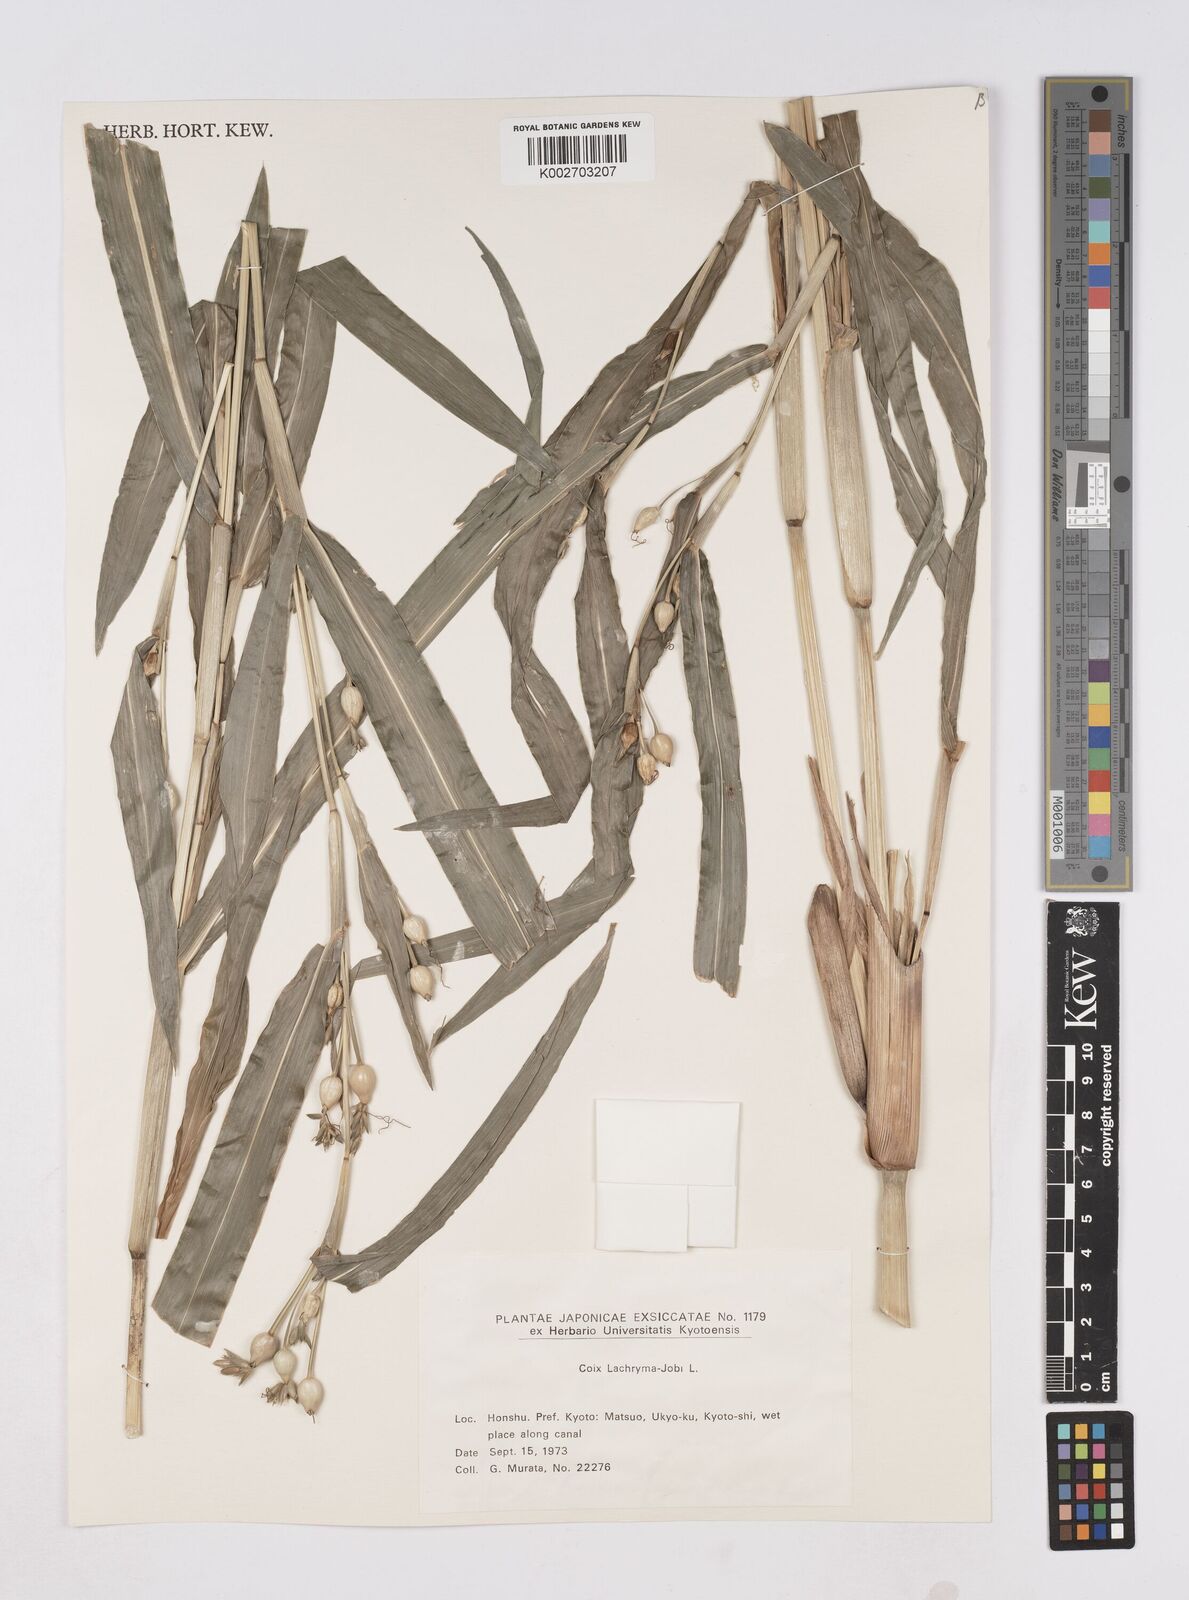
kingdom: Plantae
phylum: Tracheophyta
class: Liliopsida
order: Poales
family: Poaceae
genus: Coix
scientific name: Coix lacryma-jobi
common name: Job's tears
